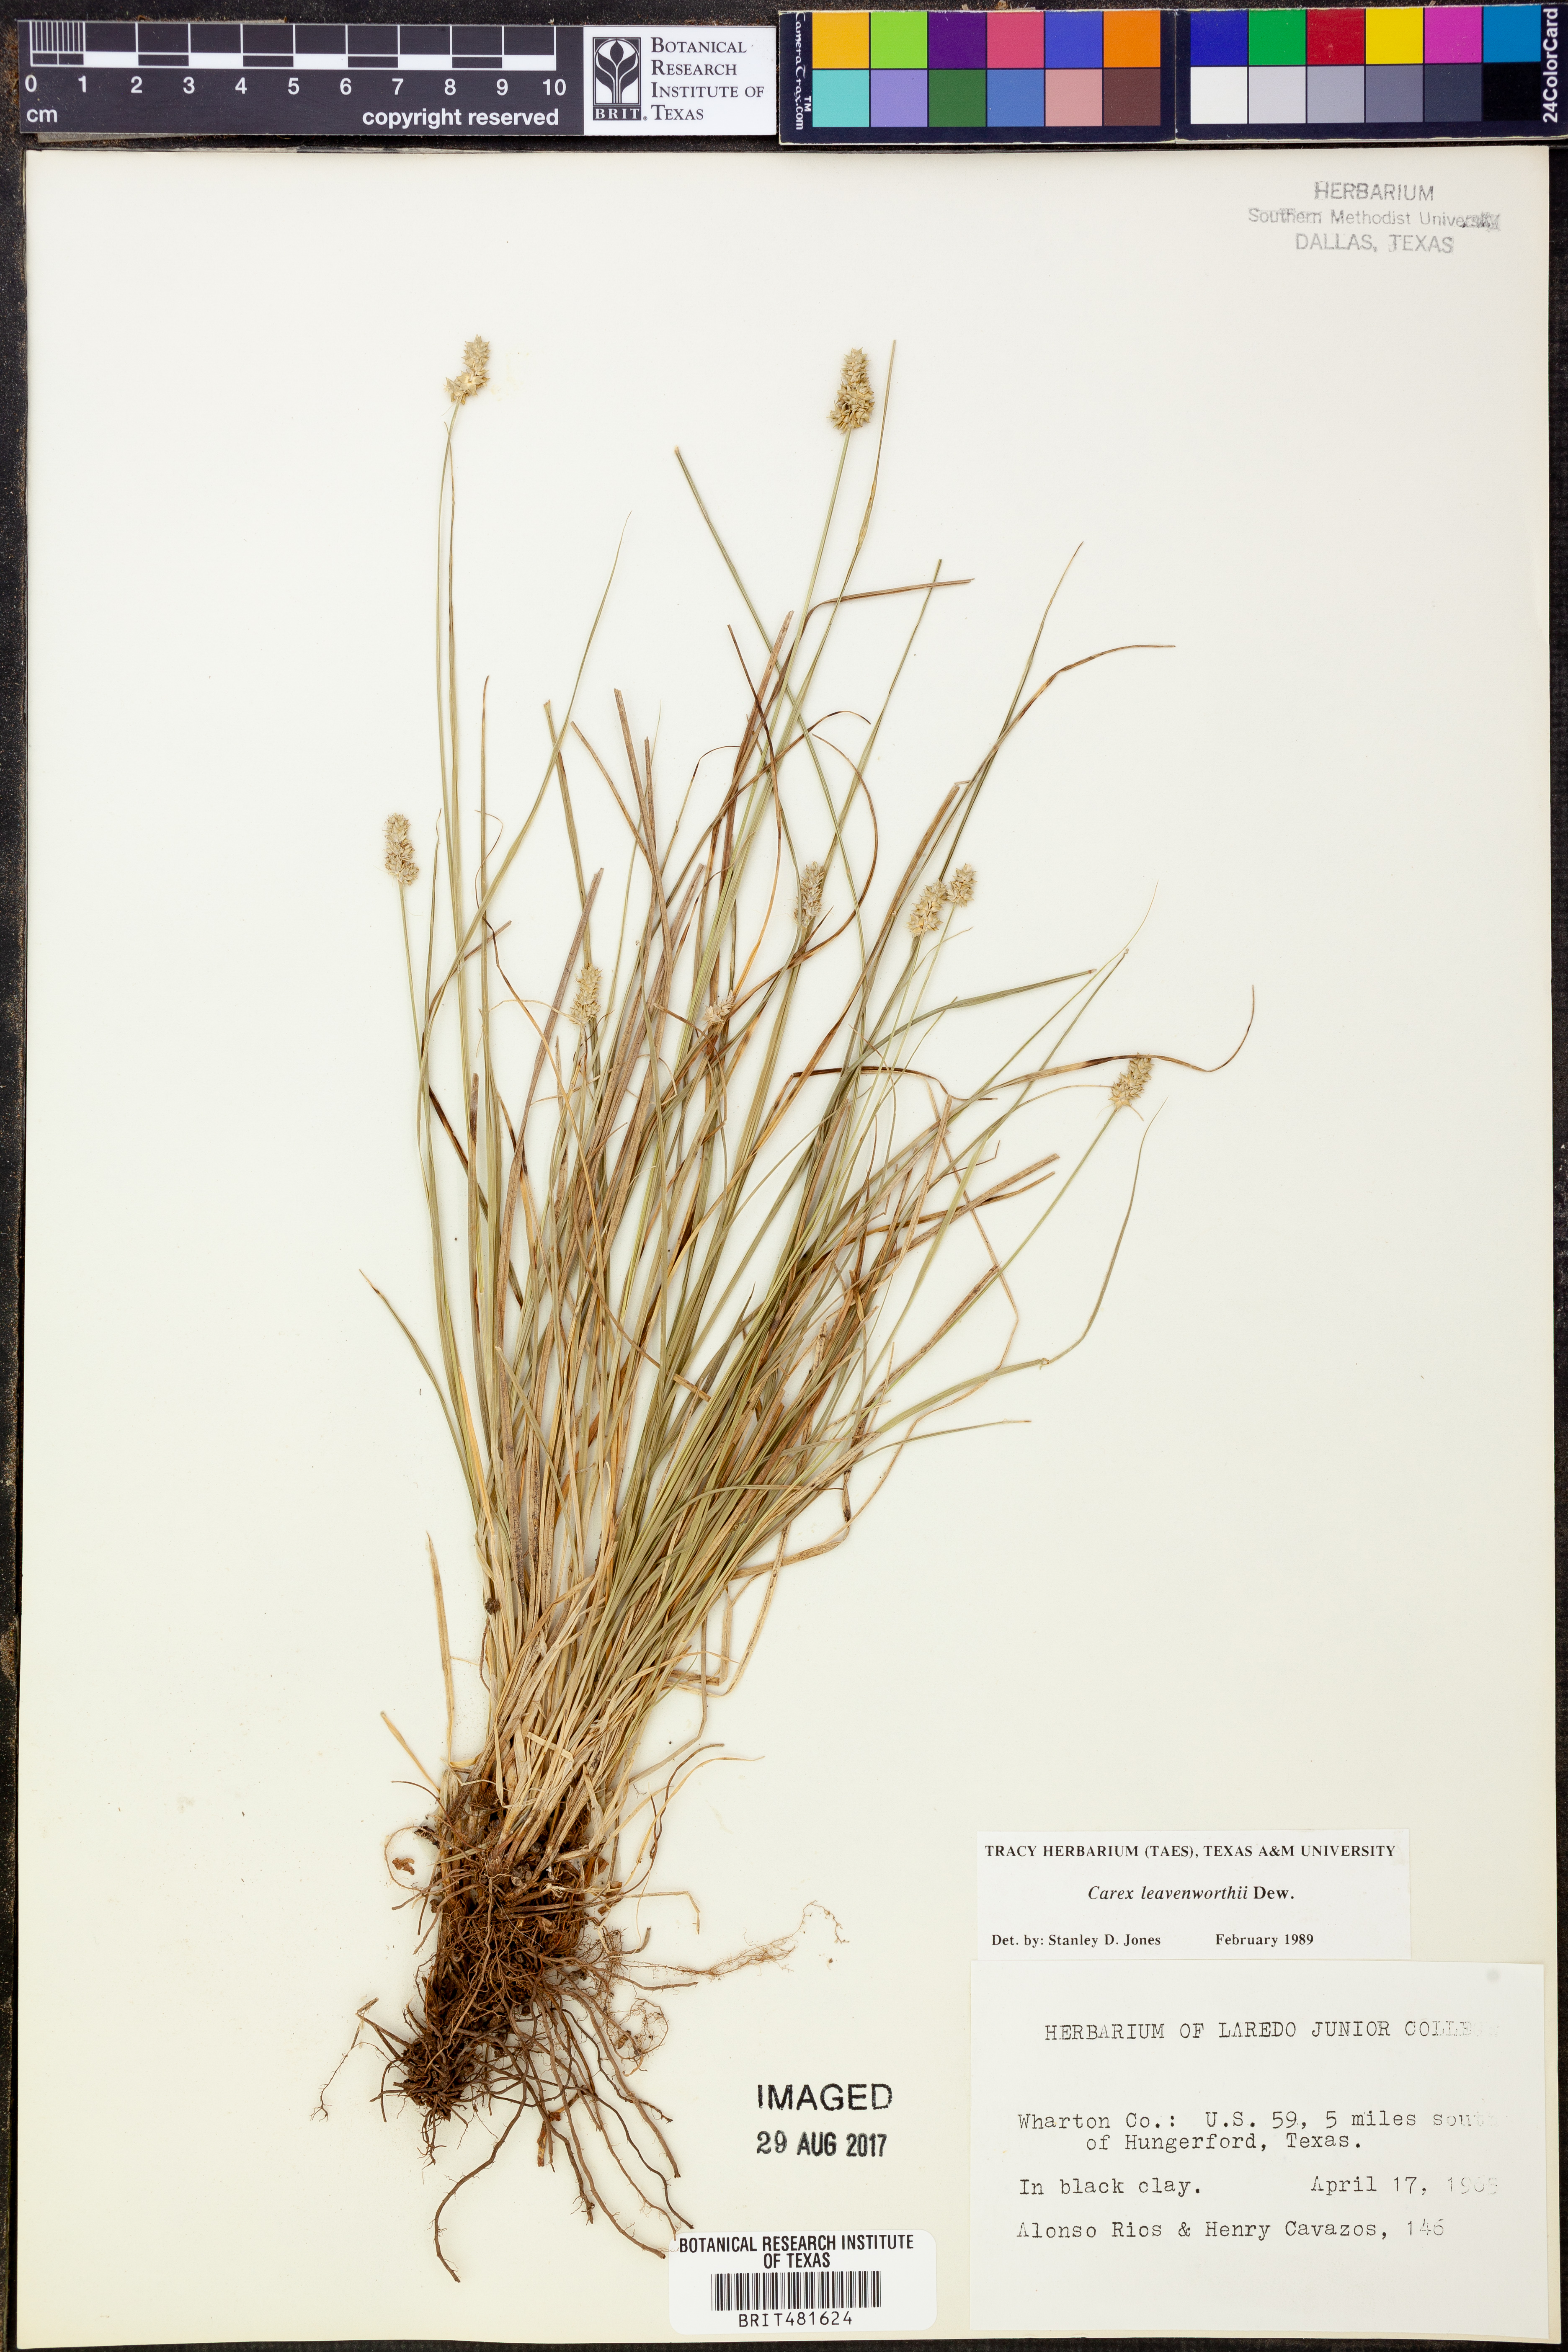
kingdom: Plantae
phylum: Tracheophyta
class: Liliopsida
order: Poales
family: Cyperaceae
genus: Carex
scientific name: Carex leavenworthii
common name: Leavenworth's bracted sedge
